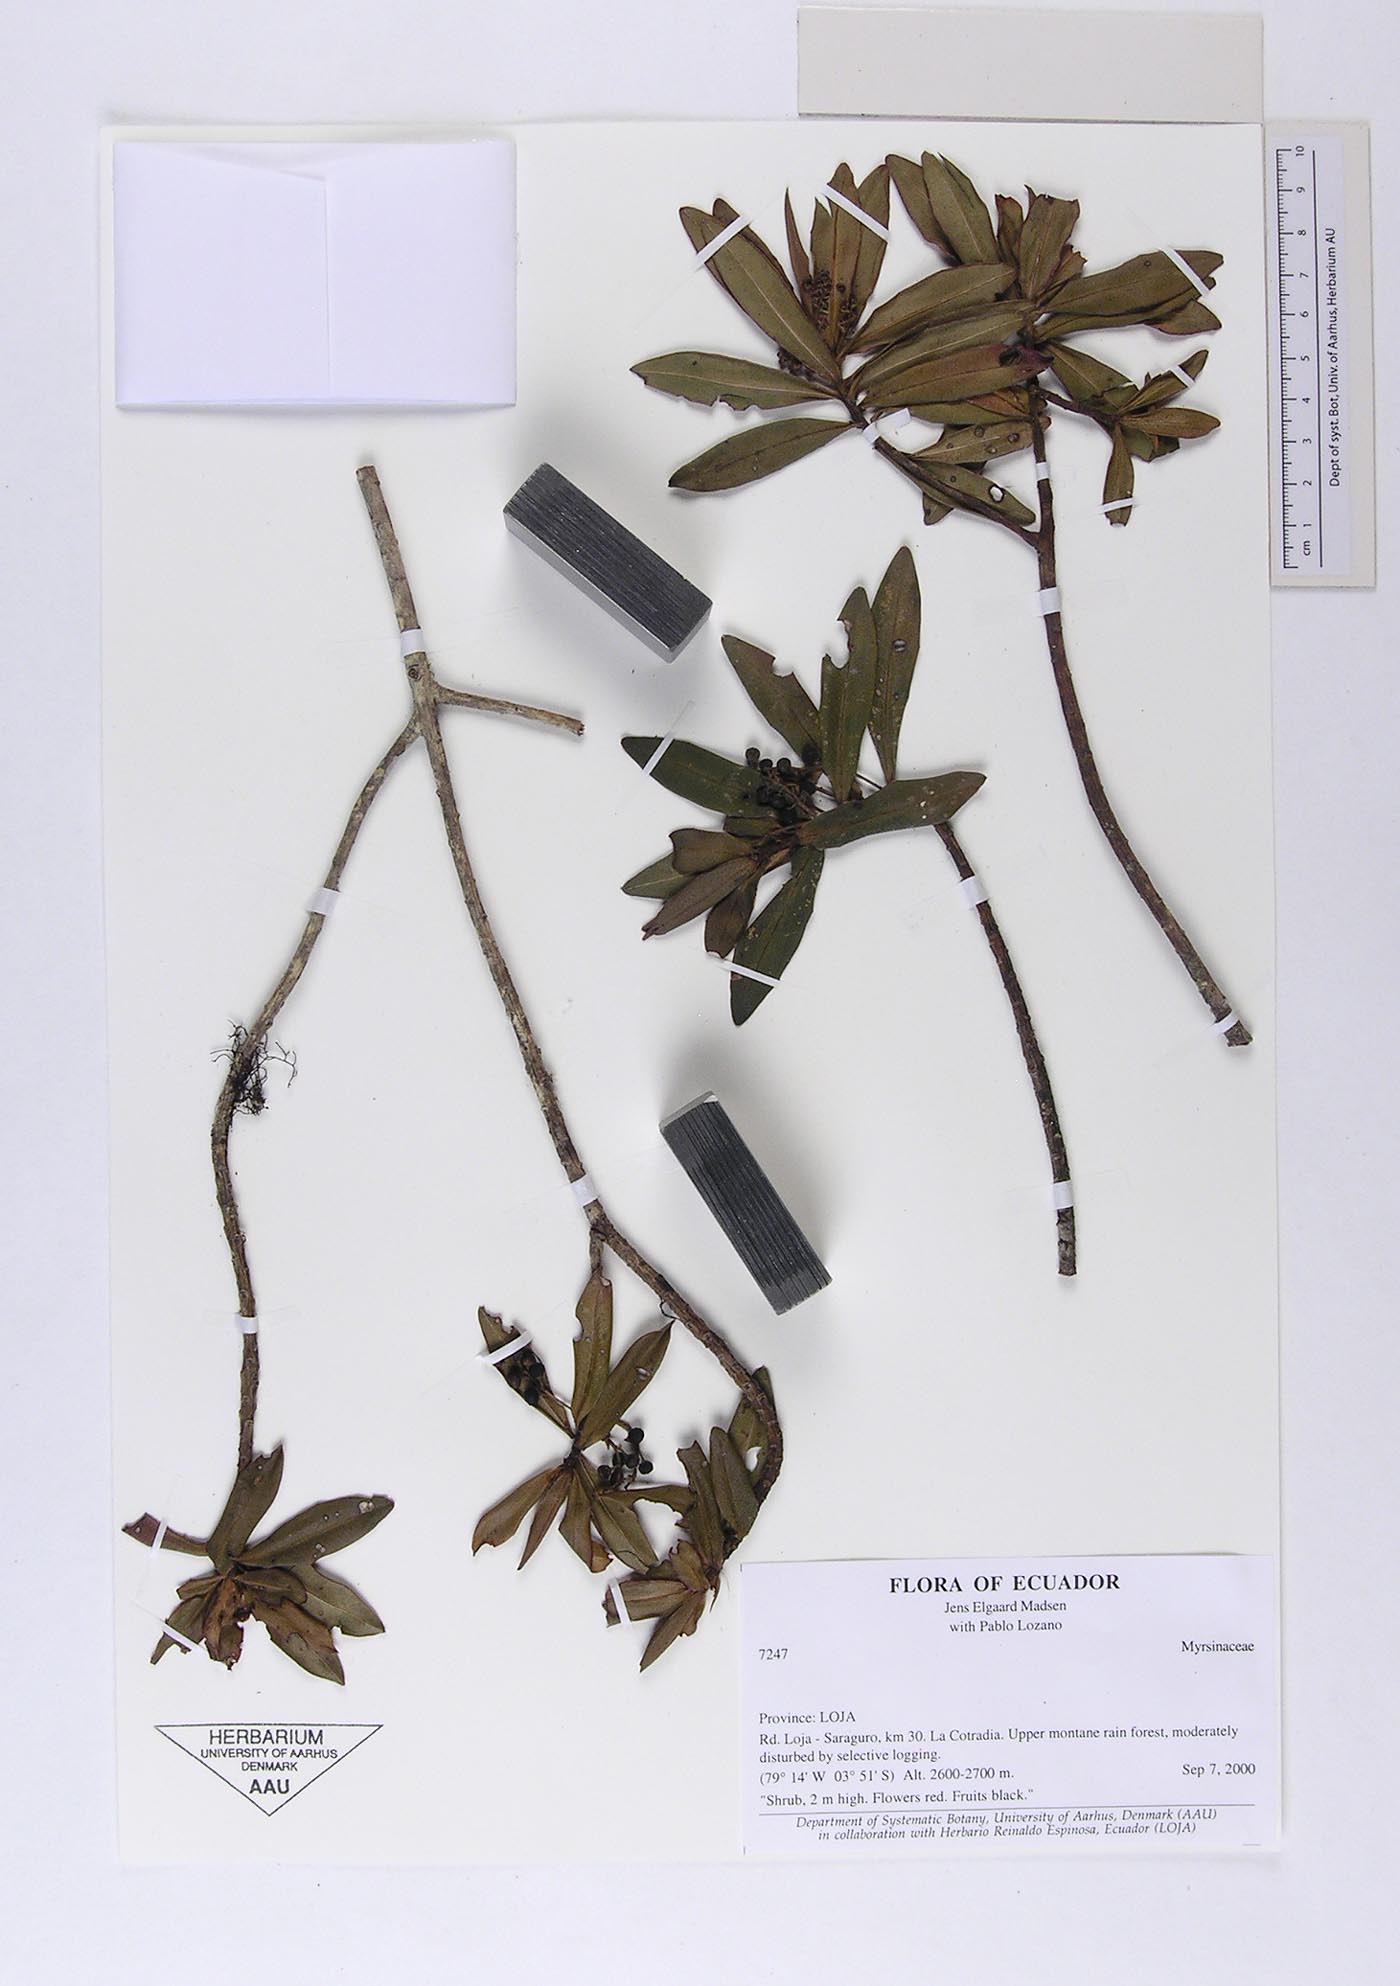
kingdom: Plantae
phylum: Tracheophyta
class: Magnoliopsida
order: Ericales
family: Primulaceae
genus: Cybianthus
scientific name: Cybianthus magnus
